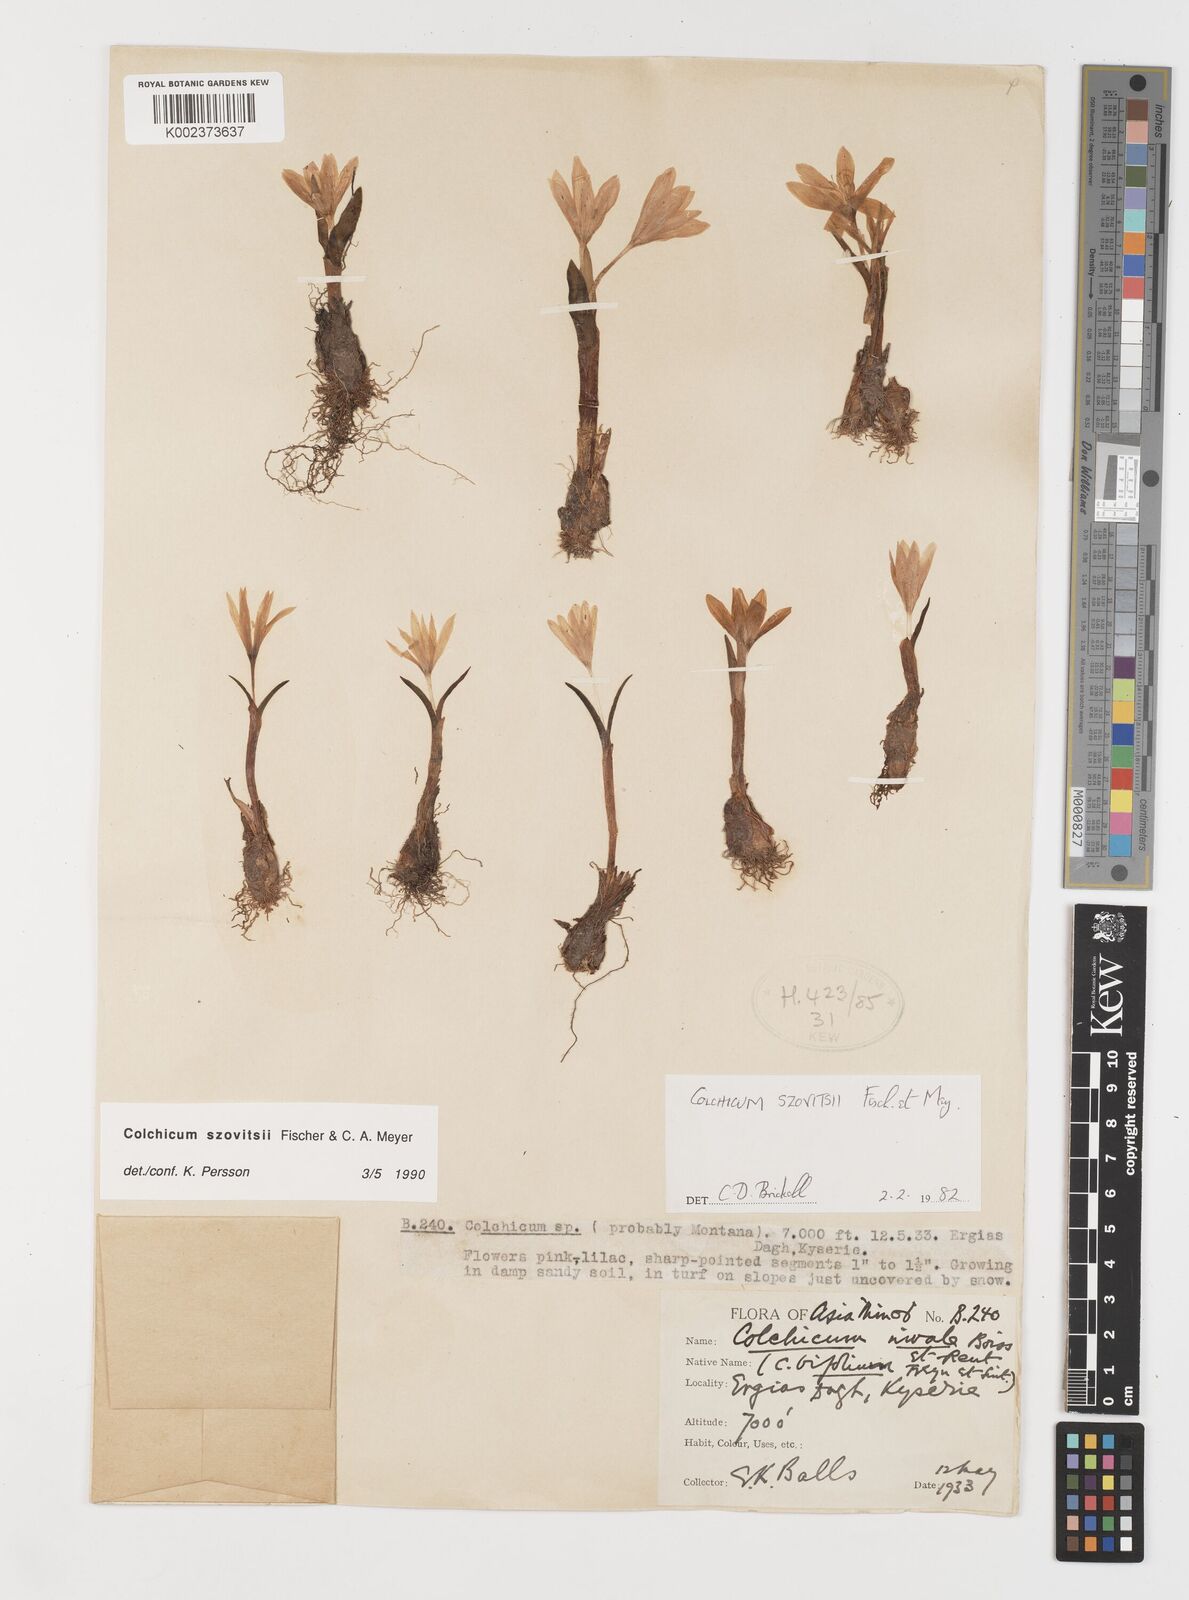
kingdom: Plantae
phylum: Tracheophyta
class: Liliopsida
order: Liliales
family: Colchicaceae
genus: Colchicum
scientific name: Colchicum szovitsii
